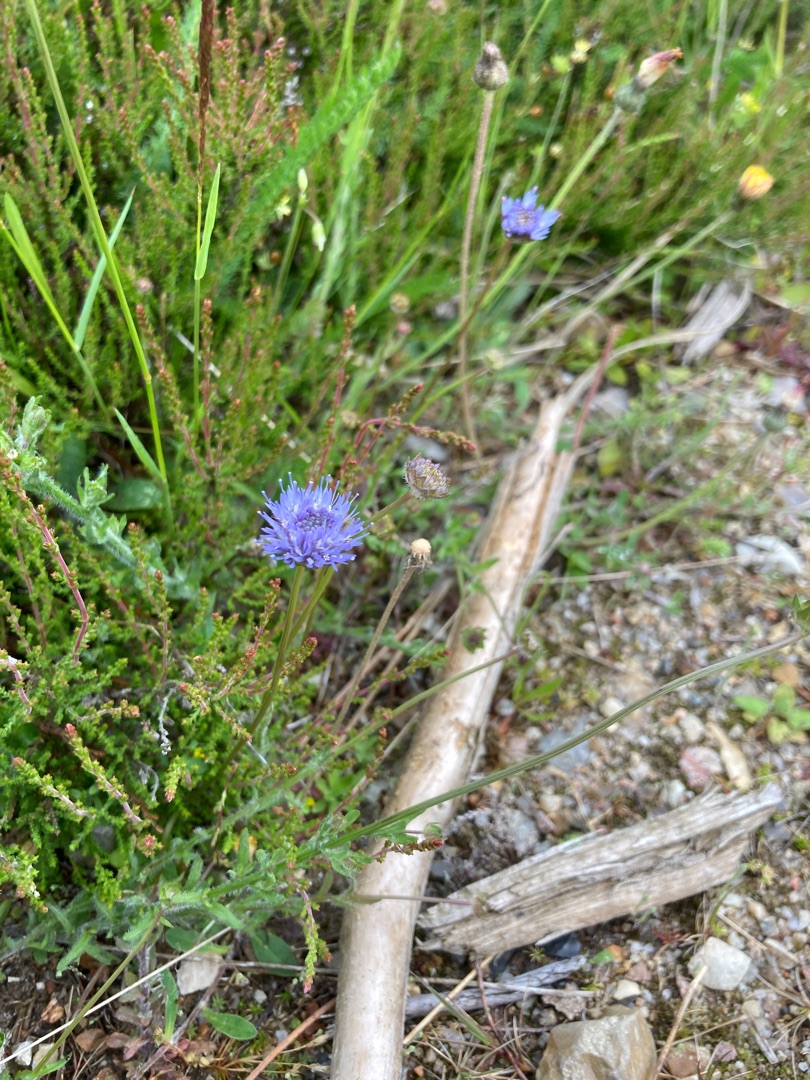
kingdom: Plantae
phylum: Tracheophyta
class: Magnoliopsida
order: Asterales
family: Campanulaceae
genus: Jasione
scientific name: Jasione montana
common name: Blåmunke
